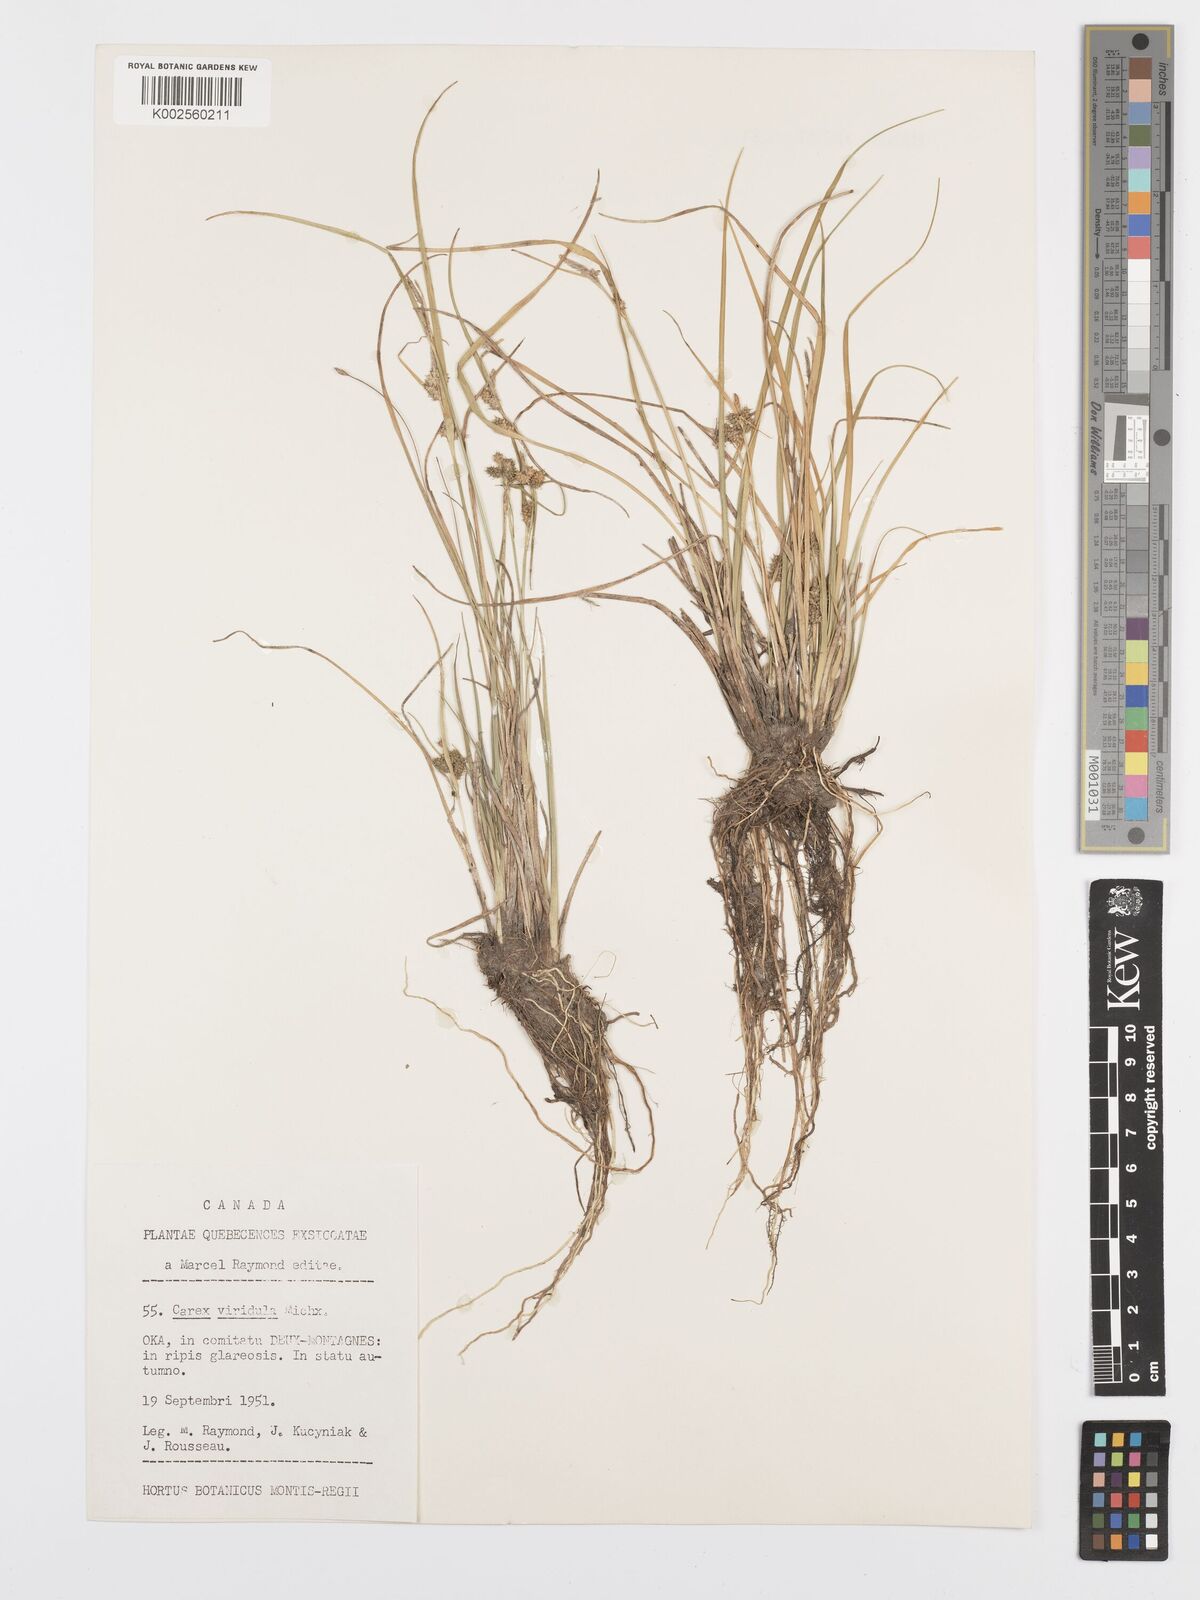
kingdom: Plantae
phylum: Tracheophyta
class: Liliopsida
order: Poales
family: Cyperaceae
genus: Carex
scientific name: Carex oederi
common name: Common & small-fruited yellow-sedge
